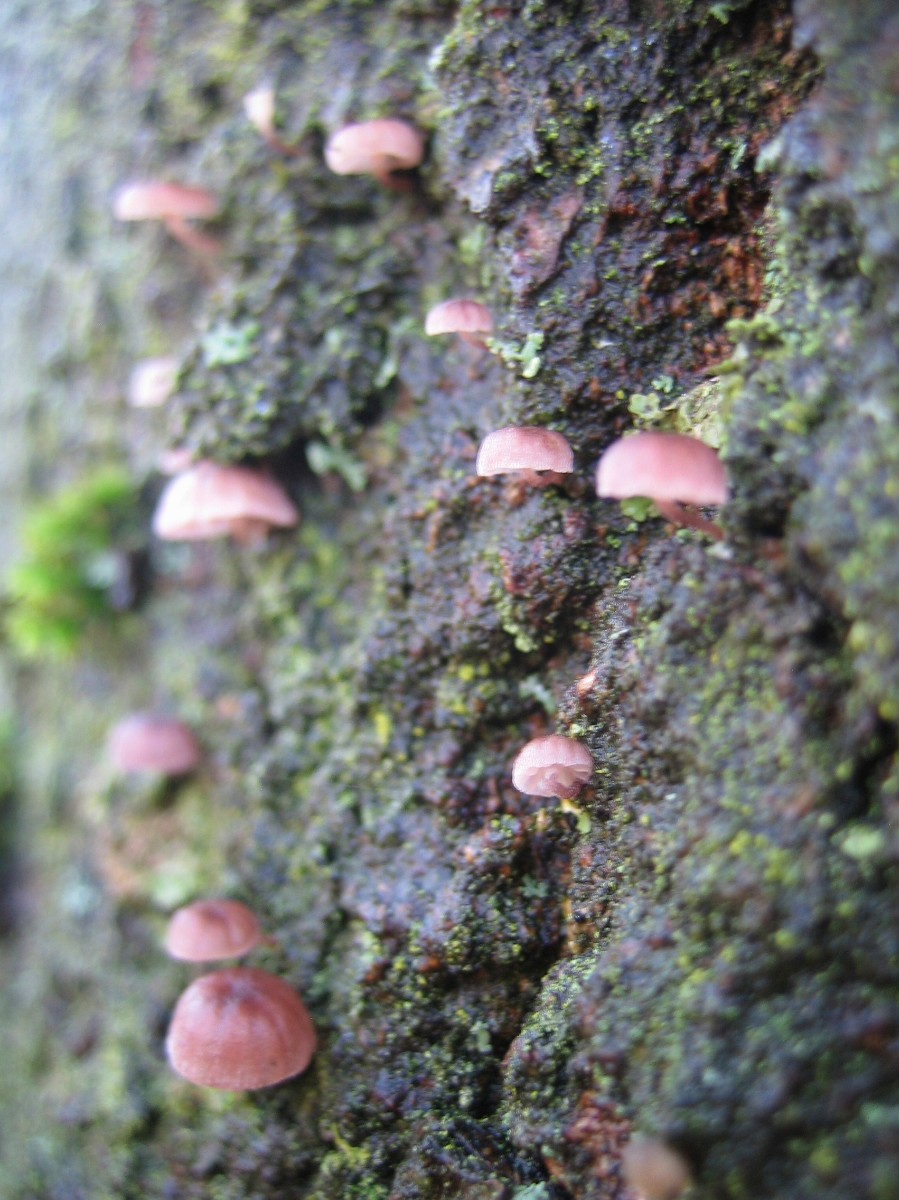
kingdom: Fungi
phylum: Basidiomycota
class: Agaricomycetes
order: Agaricales
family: Mycenaceae
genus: Mycena
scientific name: Mycena meliigena
